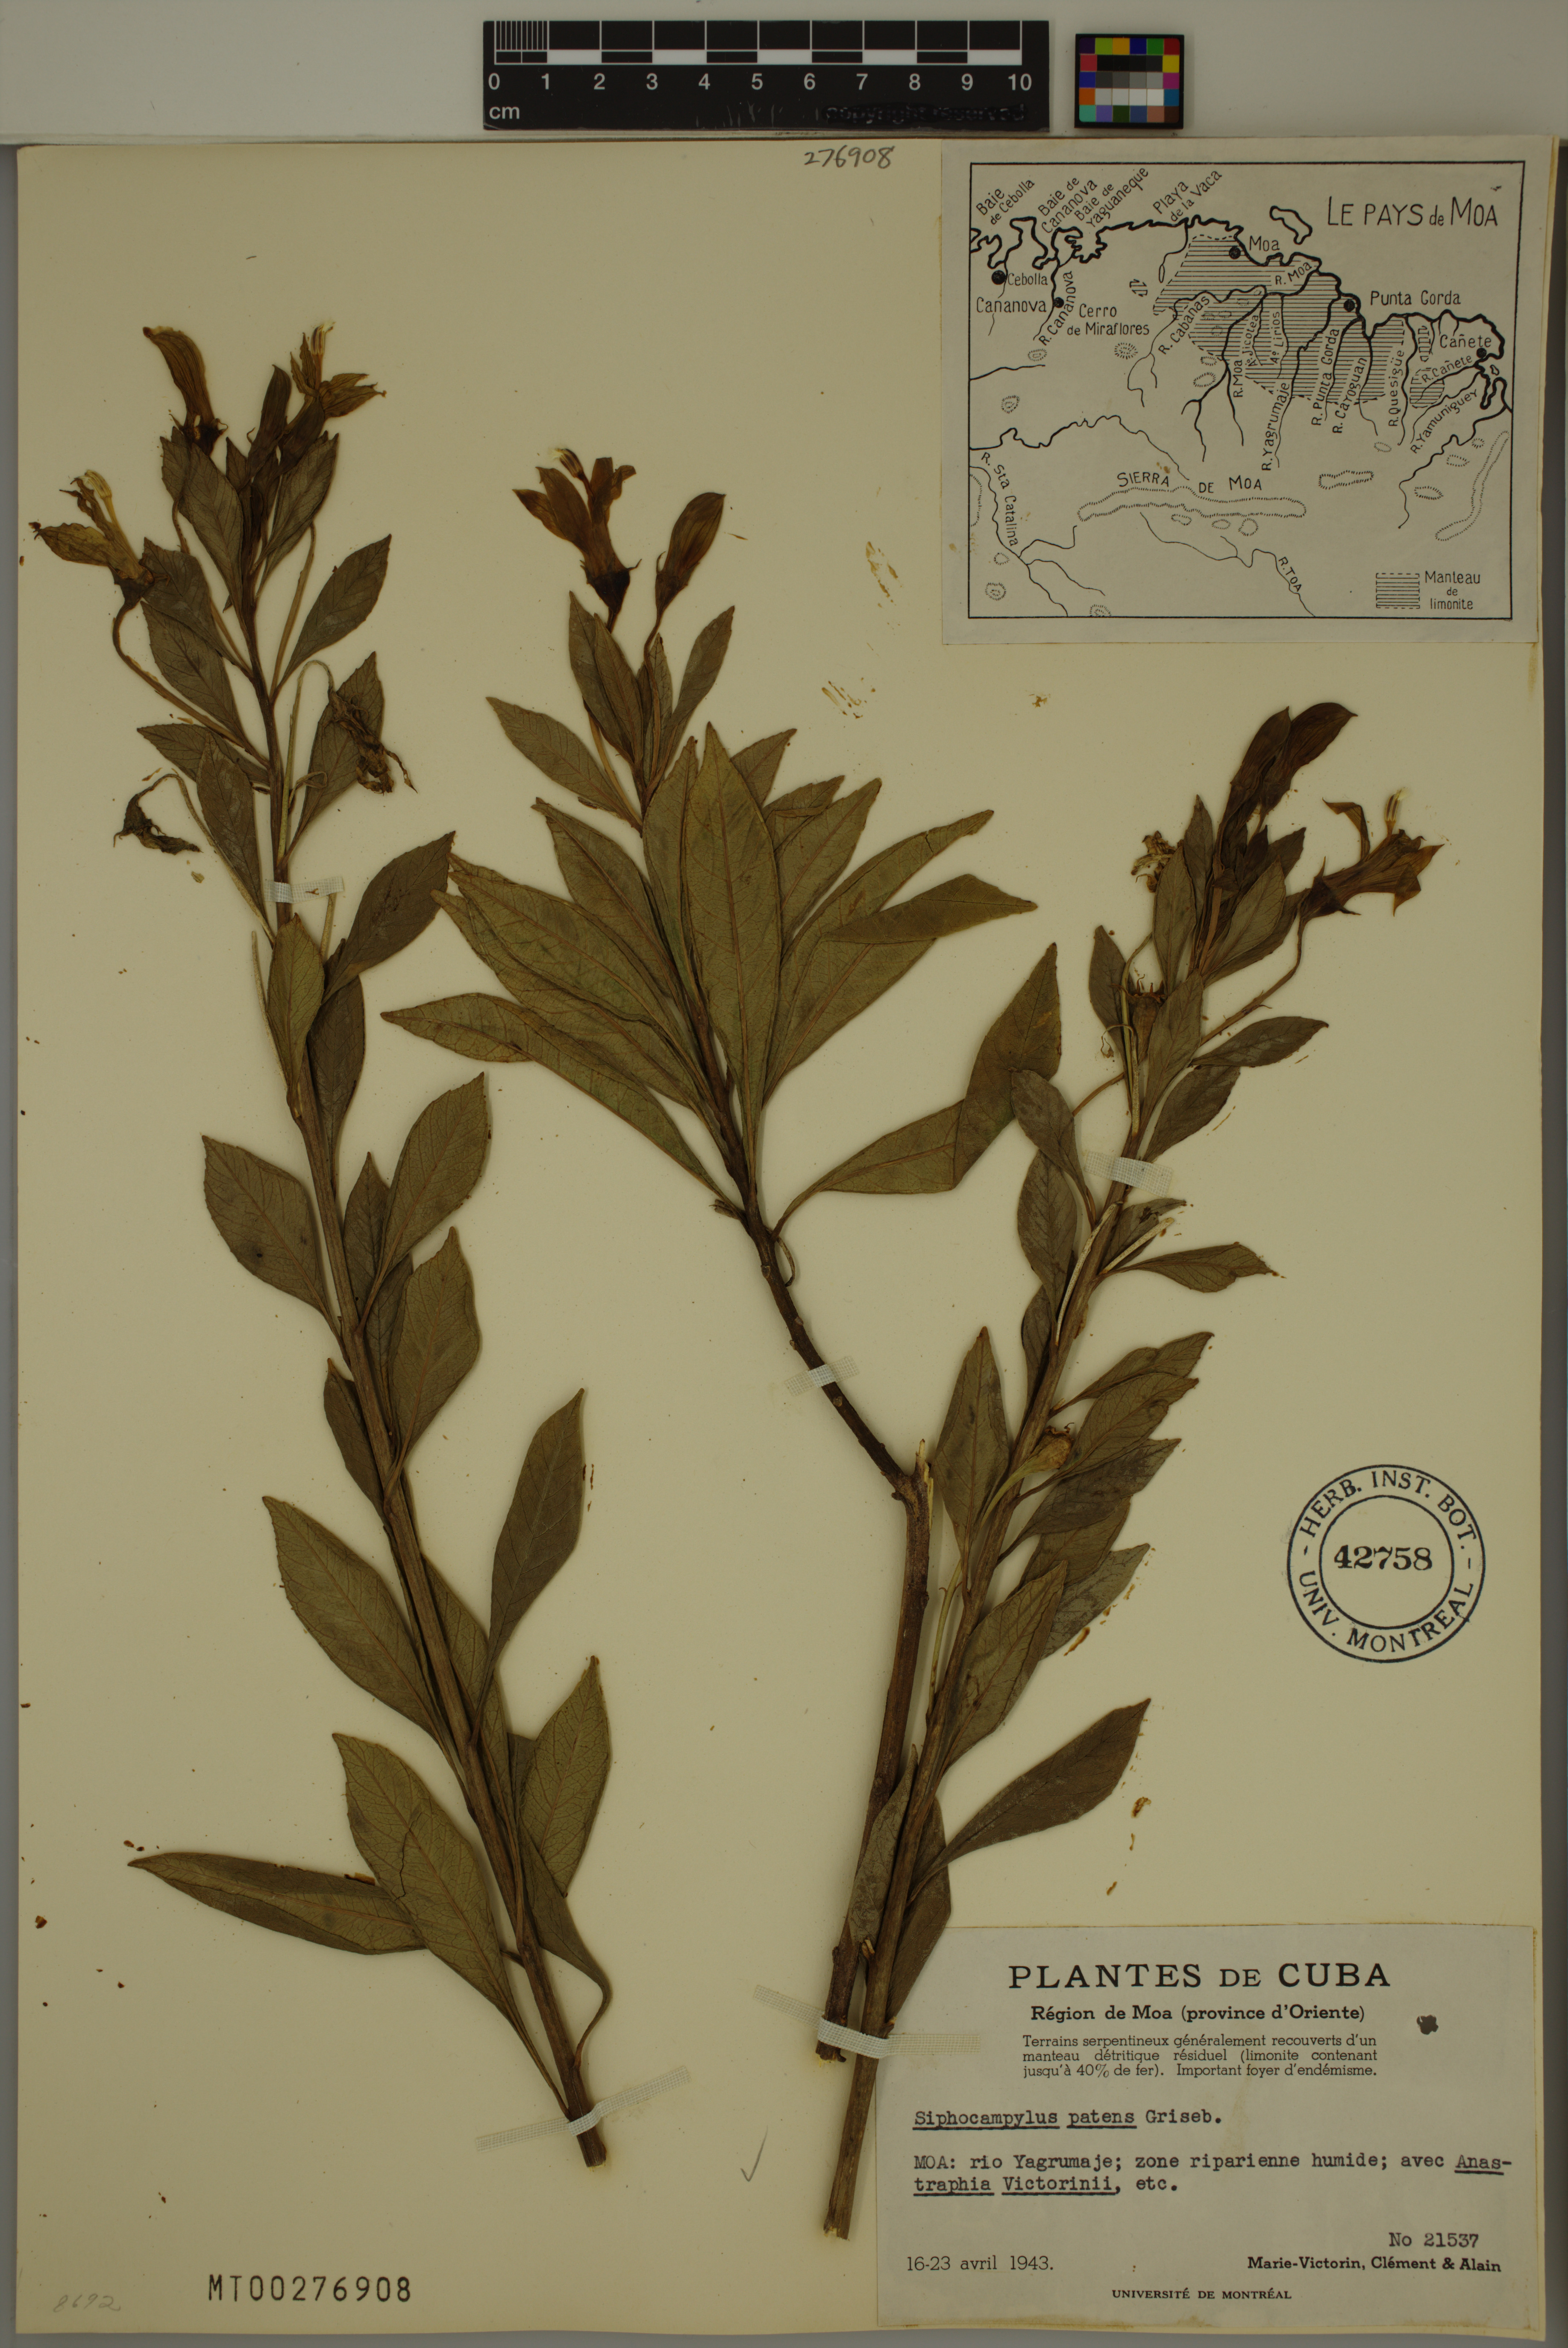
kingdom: Plantae
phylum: Tracheophyta
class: Magnoliopsida
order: Asterales
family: Campanulaceae
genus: Siphocampylus
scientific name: Siphocampylus patens
